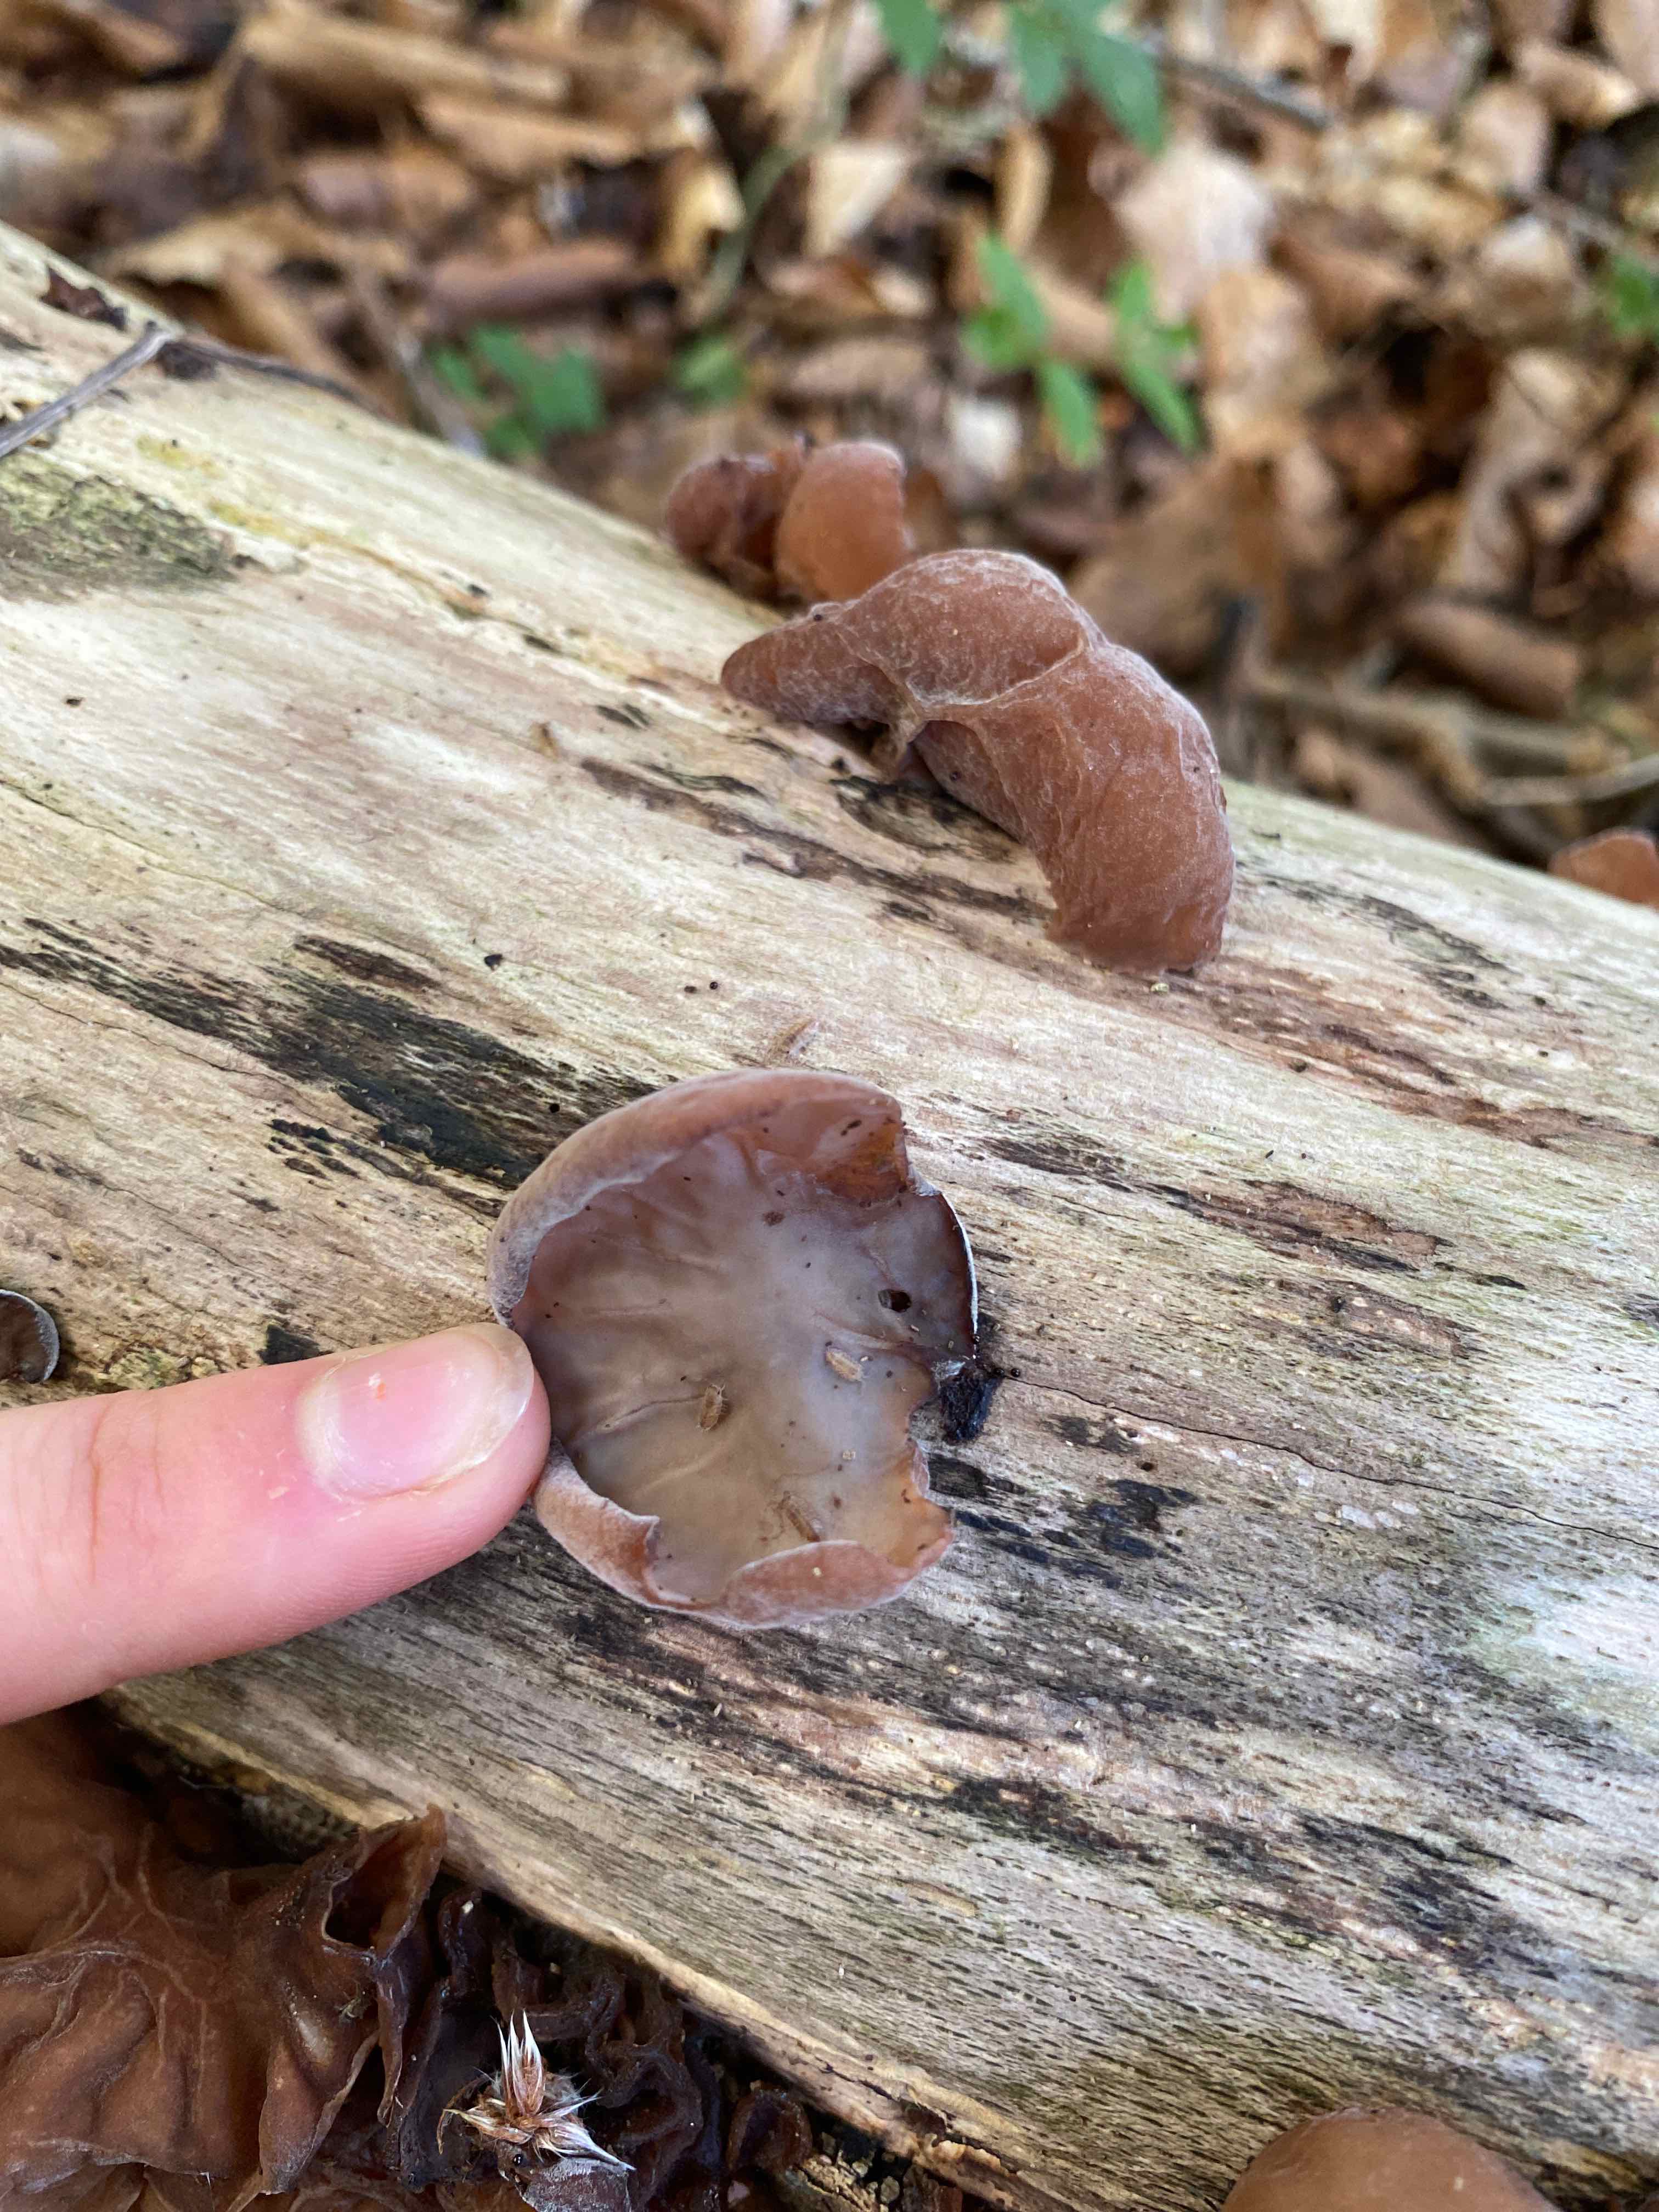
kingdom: Fungi
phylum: Basidiomycota
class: Agaricomycetes
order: Auriculariales
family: Auriculariaceae
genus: Auricularia
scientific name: Auricularia auricula-judae
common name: almindelig judasøre
